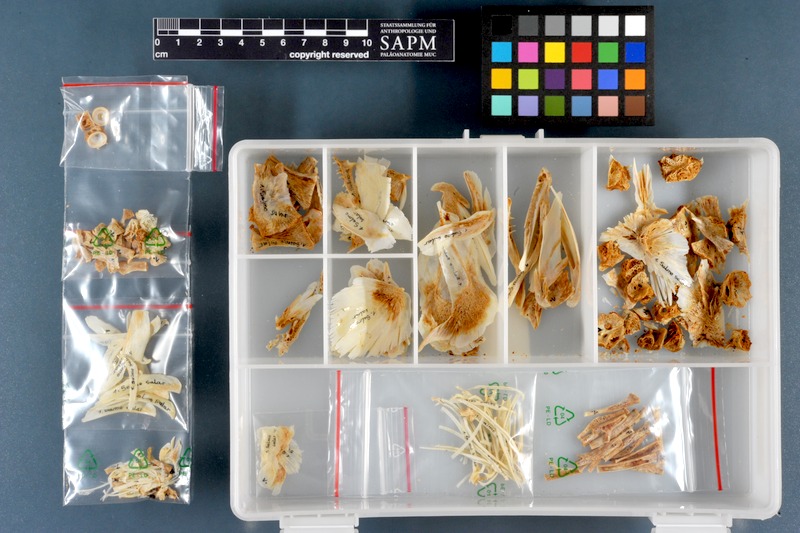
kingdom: Animalia
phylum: Chordata
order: Salmoniformes
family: Salmonidae
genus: Salmo
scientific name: Salmo salar
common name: Atlantic salmon
